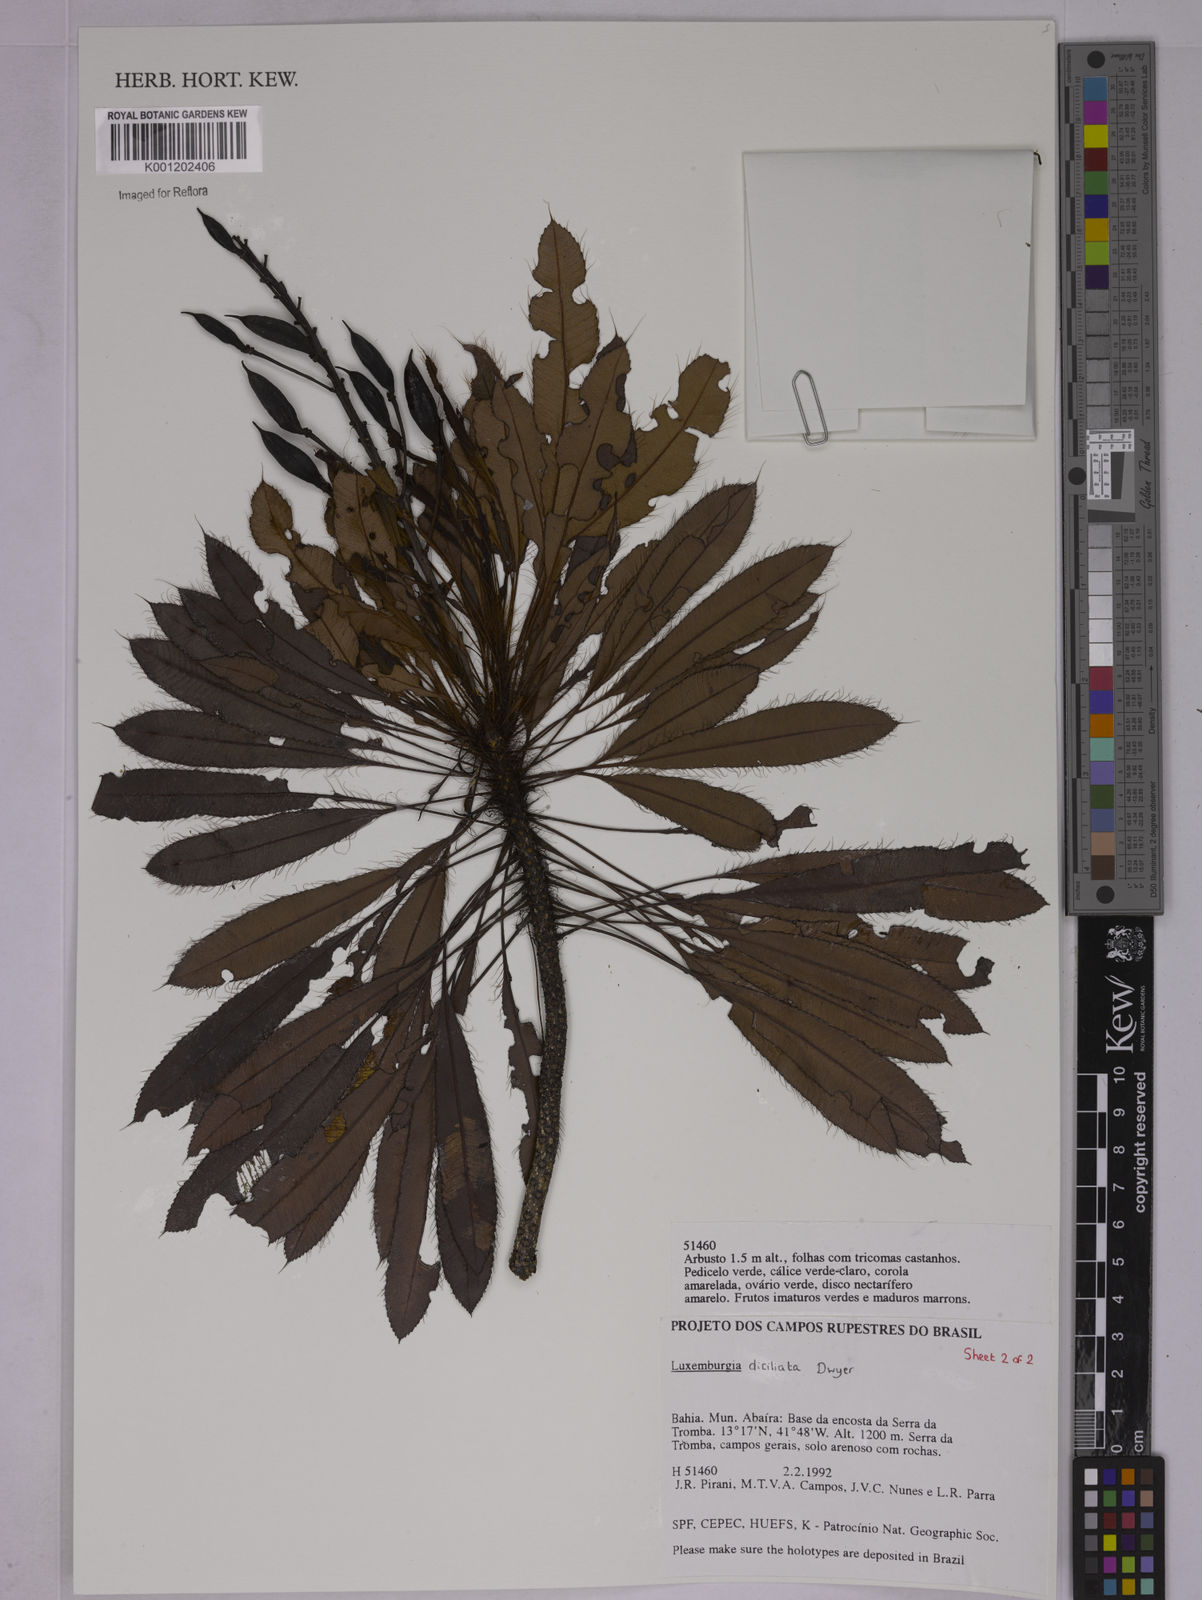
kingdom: Plantae
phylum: Tracheophyta
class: Magnoliopsida
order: Malpighiales
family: Ochnaceae
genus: Luxemburgia
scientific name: Luxemburgia diciliata
